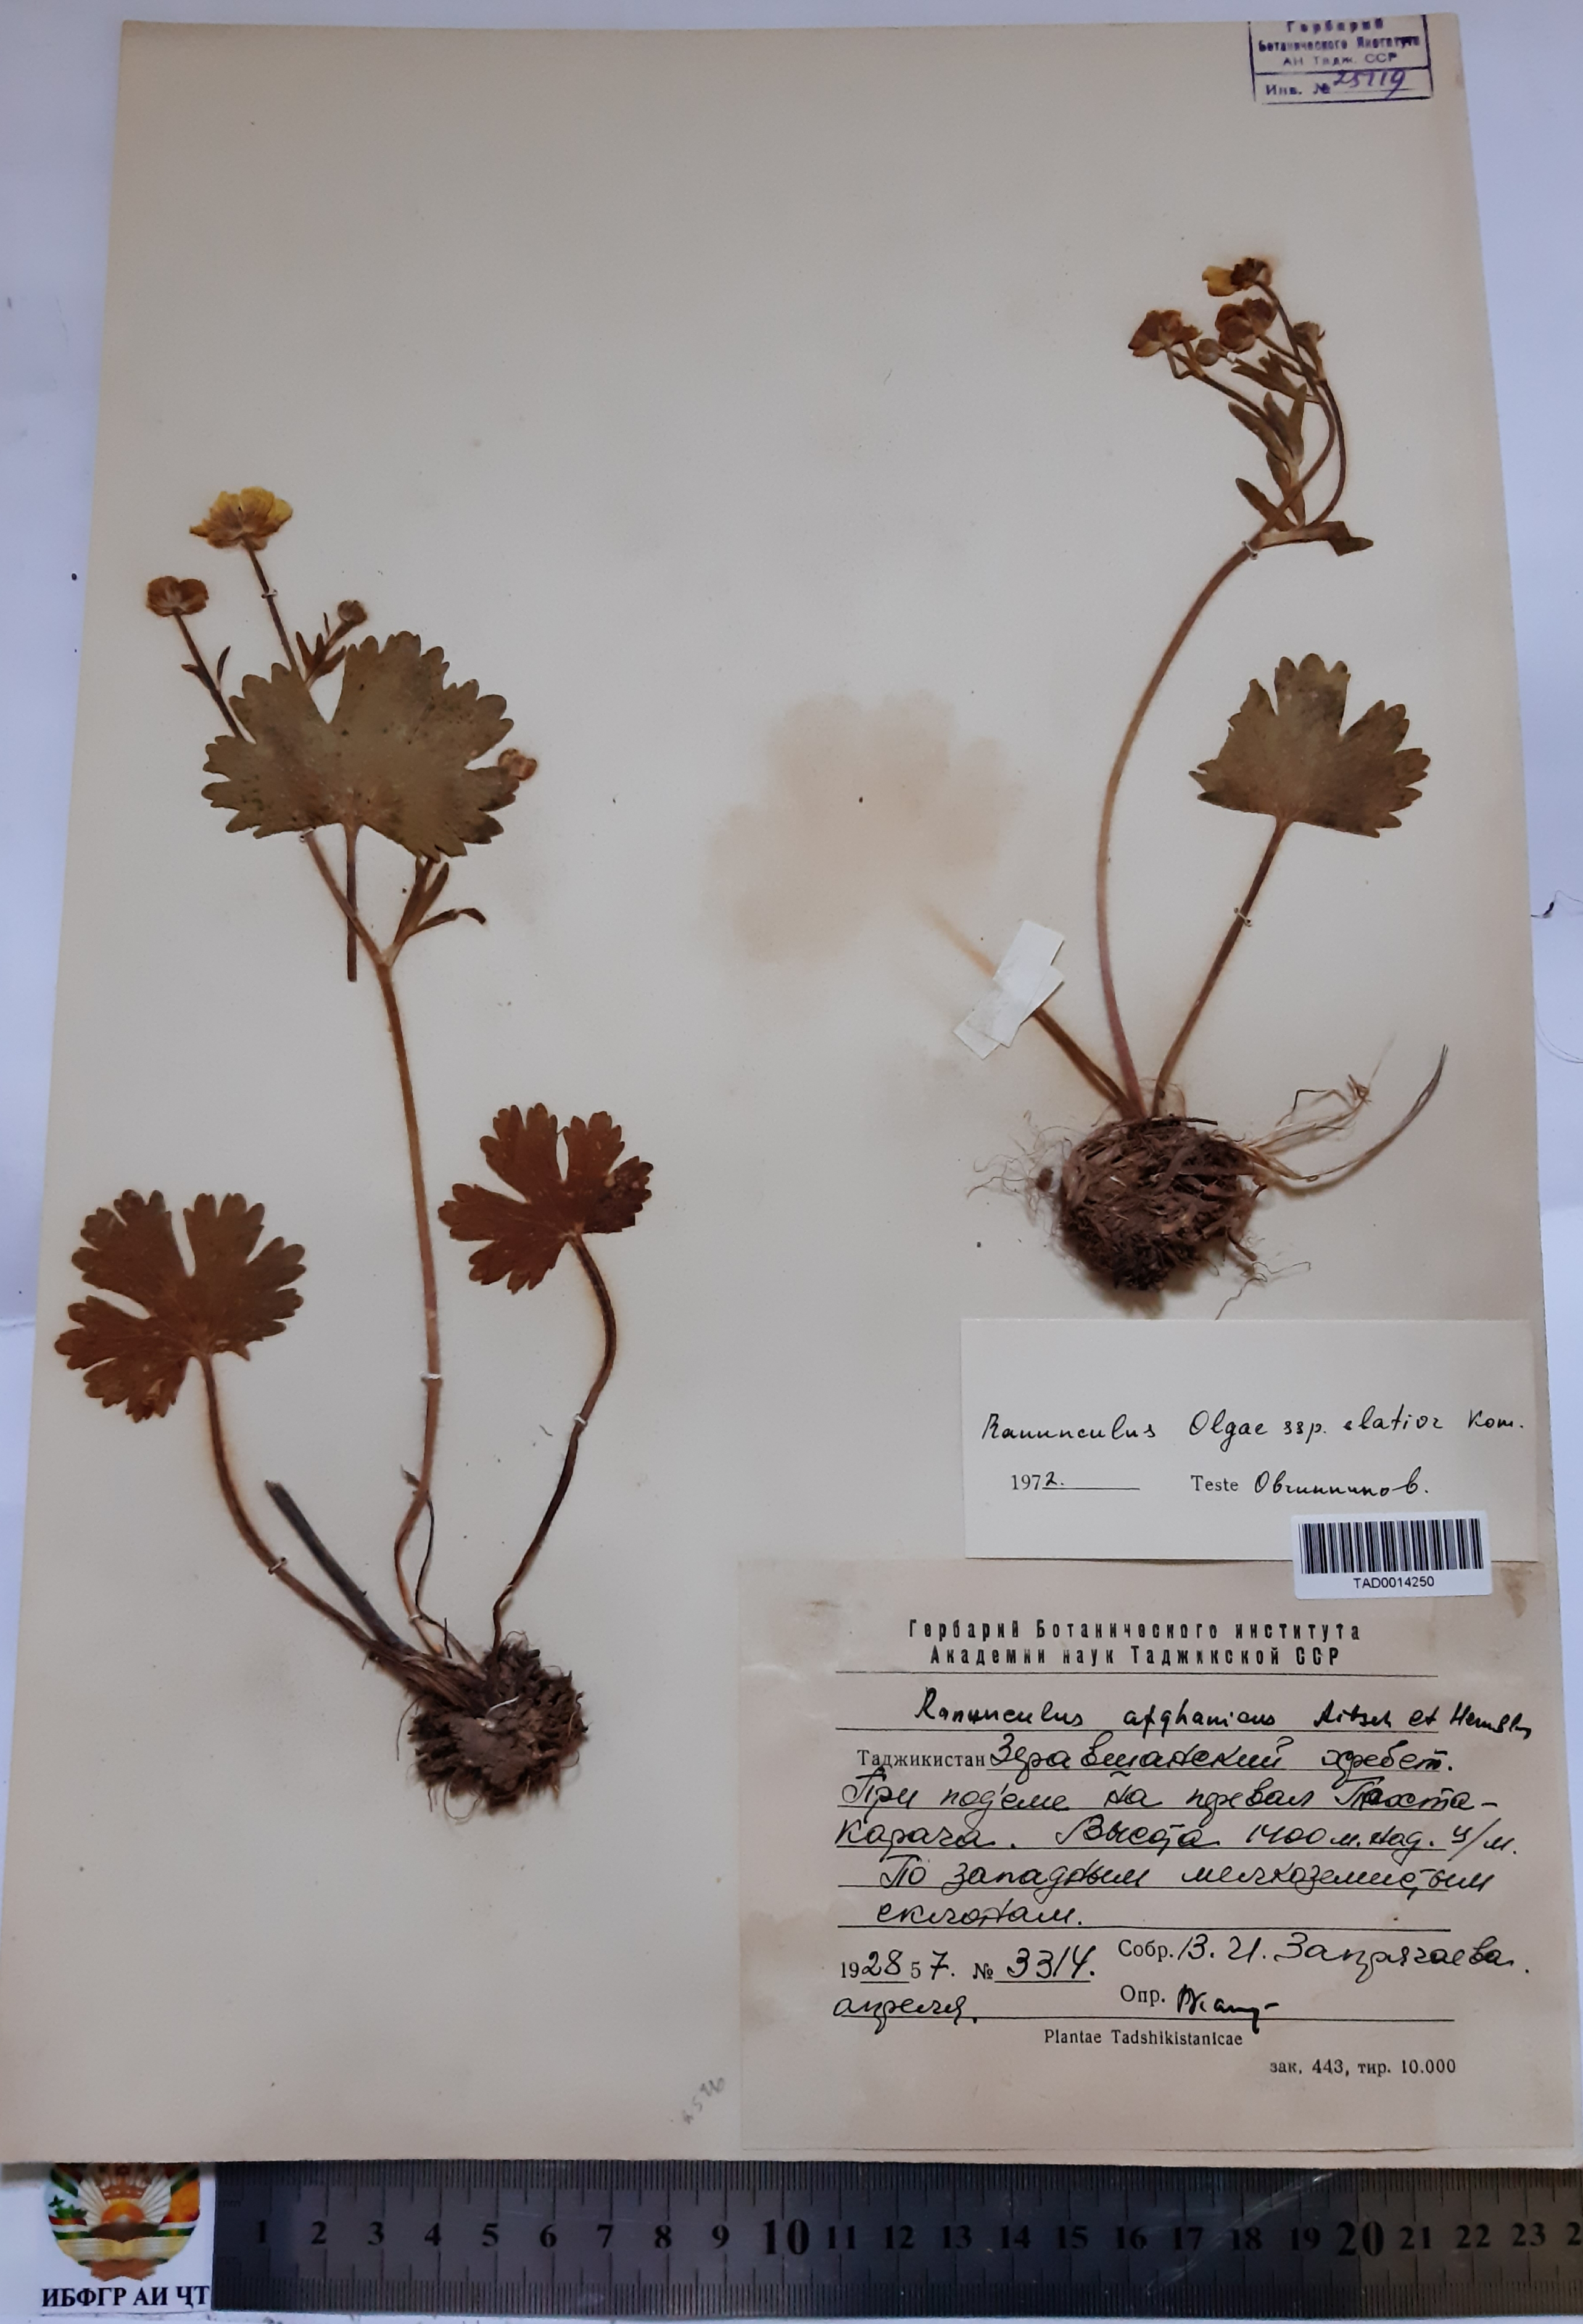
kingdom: Plantae
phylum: Tracheophyta
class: Magnoliopsida
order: Ranunculales
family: Ranunculaceae
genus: Ranunculus
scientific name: Ranunculus afghanicus
